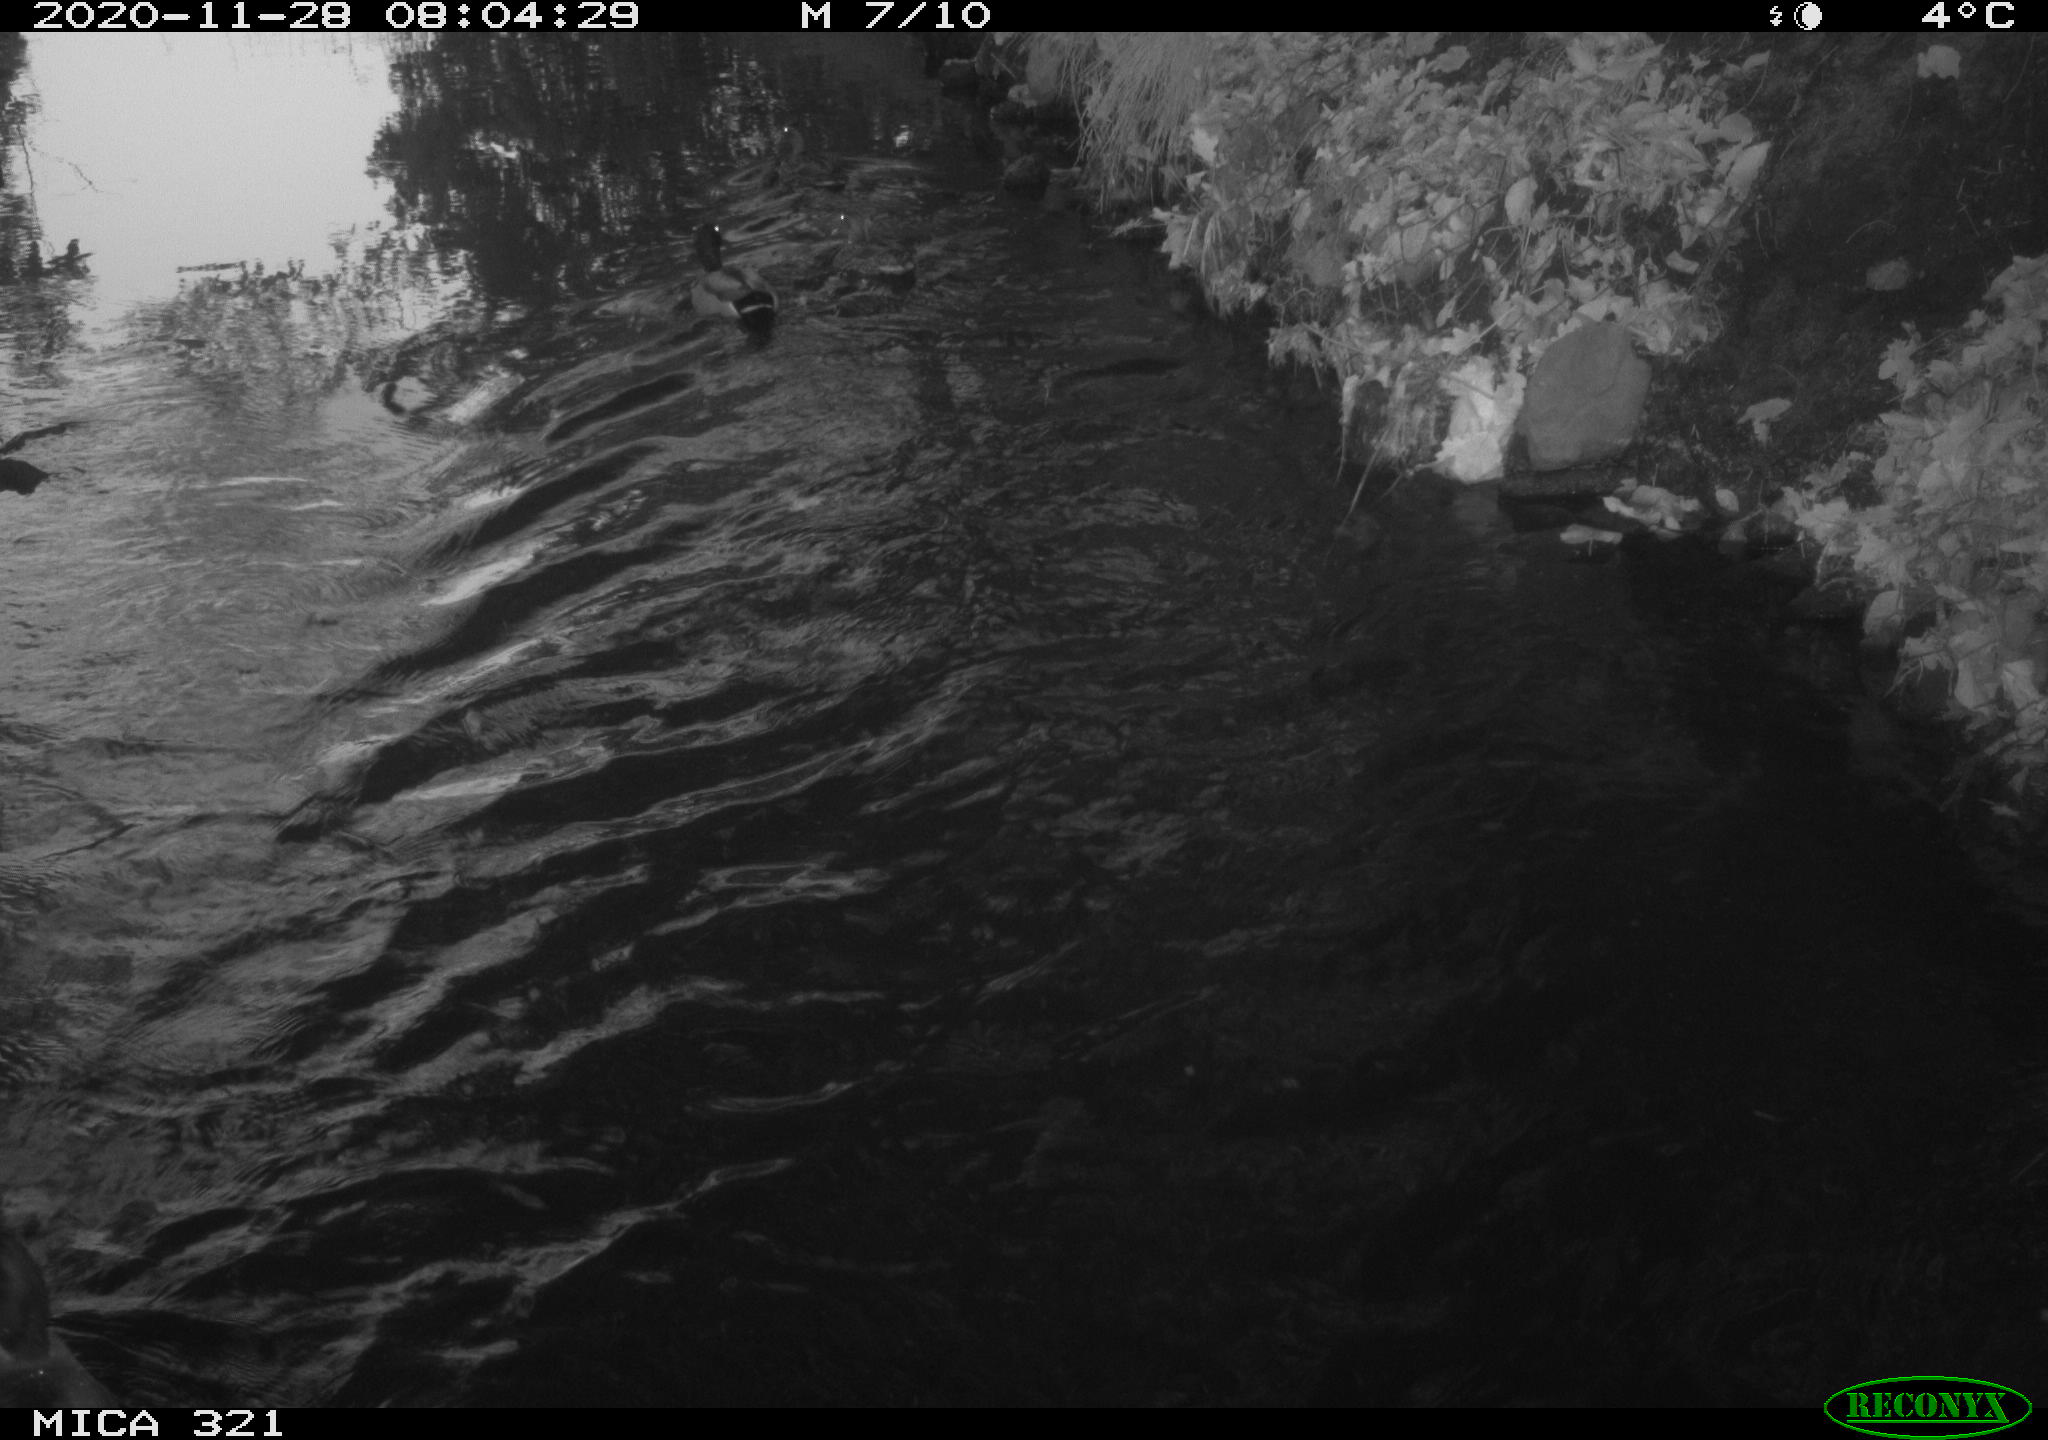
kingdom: Animalia
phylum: Chordata
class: Aves
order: Anseriformes
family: Anatidae
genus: Anas
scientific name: Anas platyrhynchos
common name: Mallard
